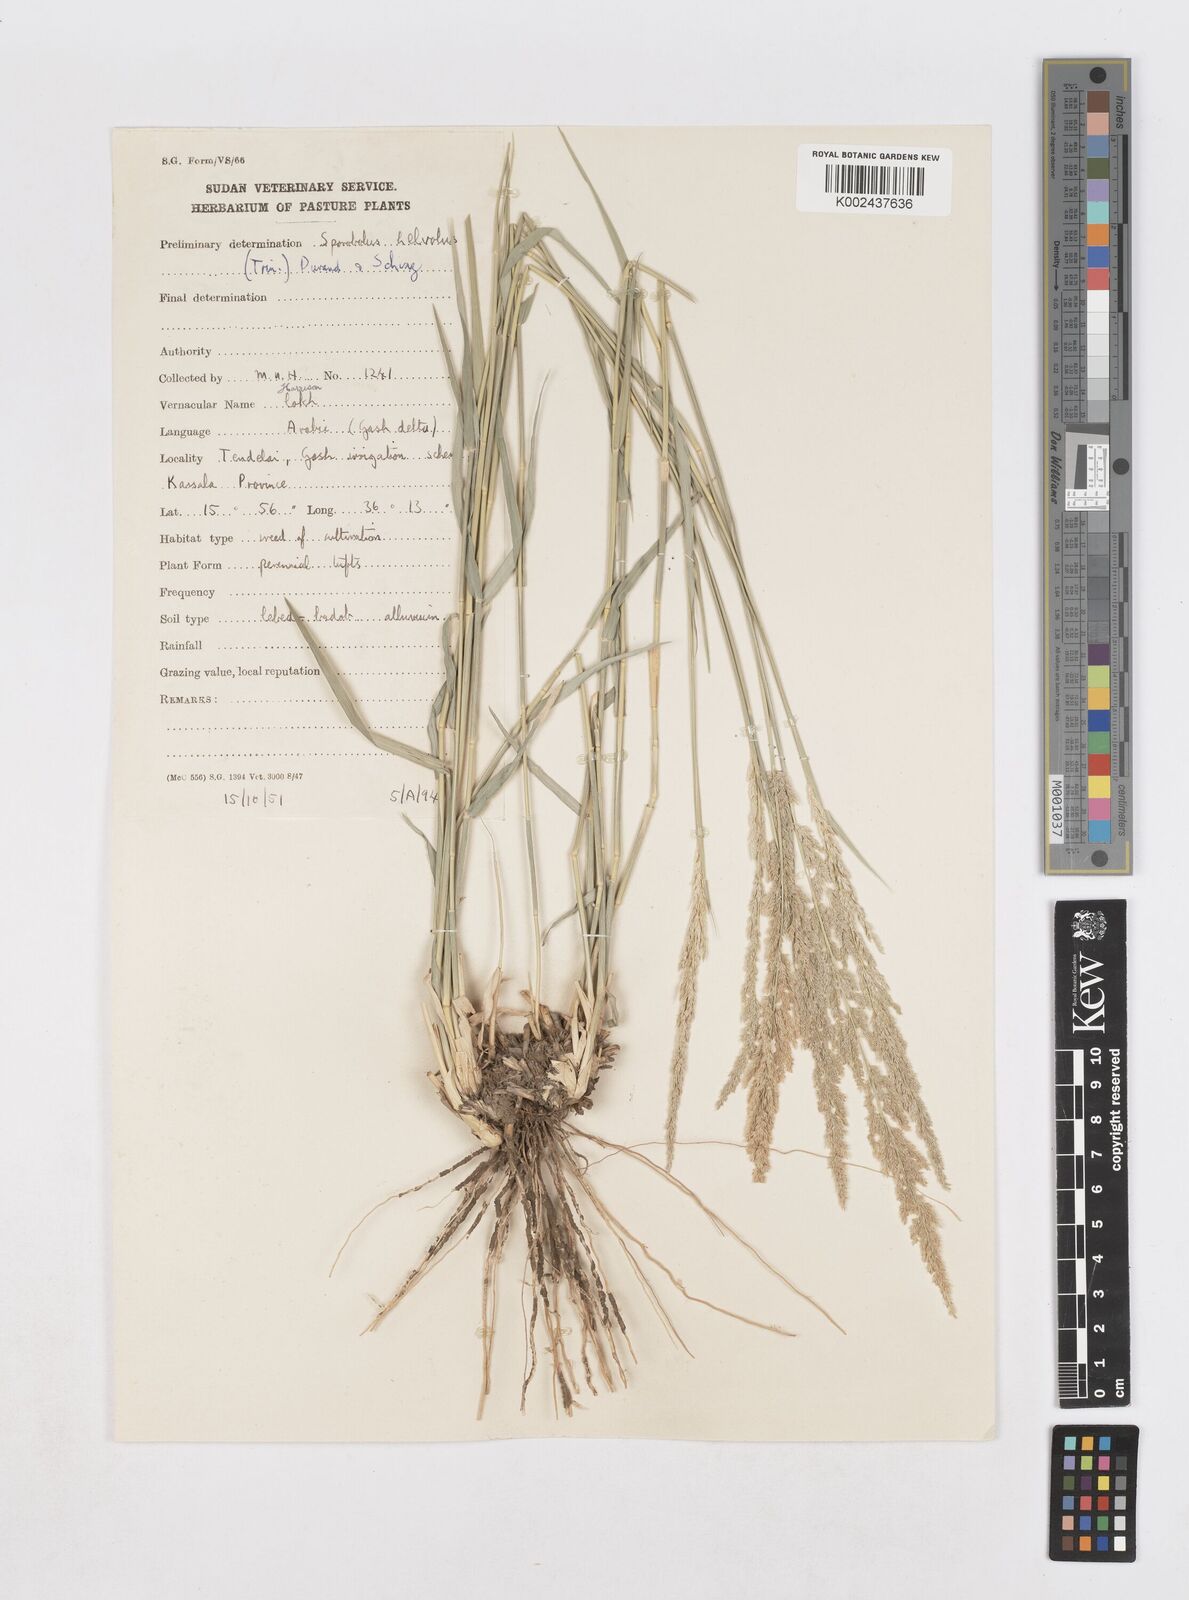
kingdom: Plantae
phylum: Tracheophyta
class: Liliopsida
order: Poales
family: Poaceae
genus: Sporobolus
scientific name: Sporobolus helvolus
